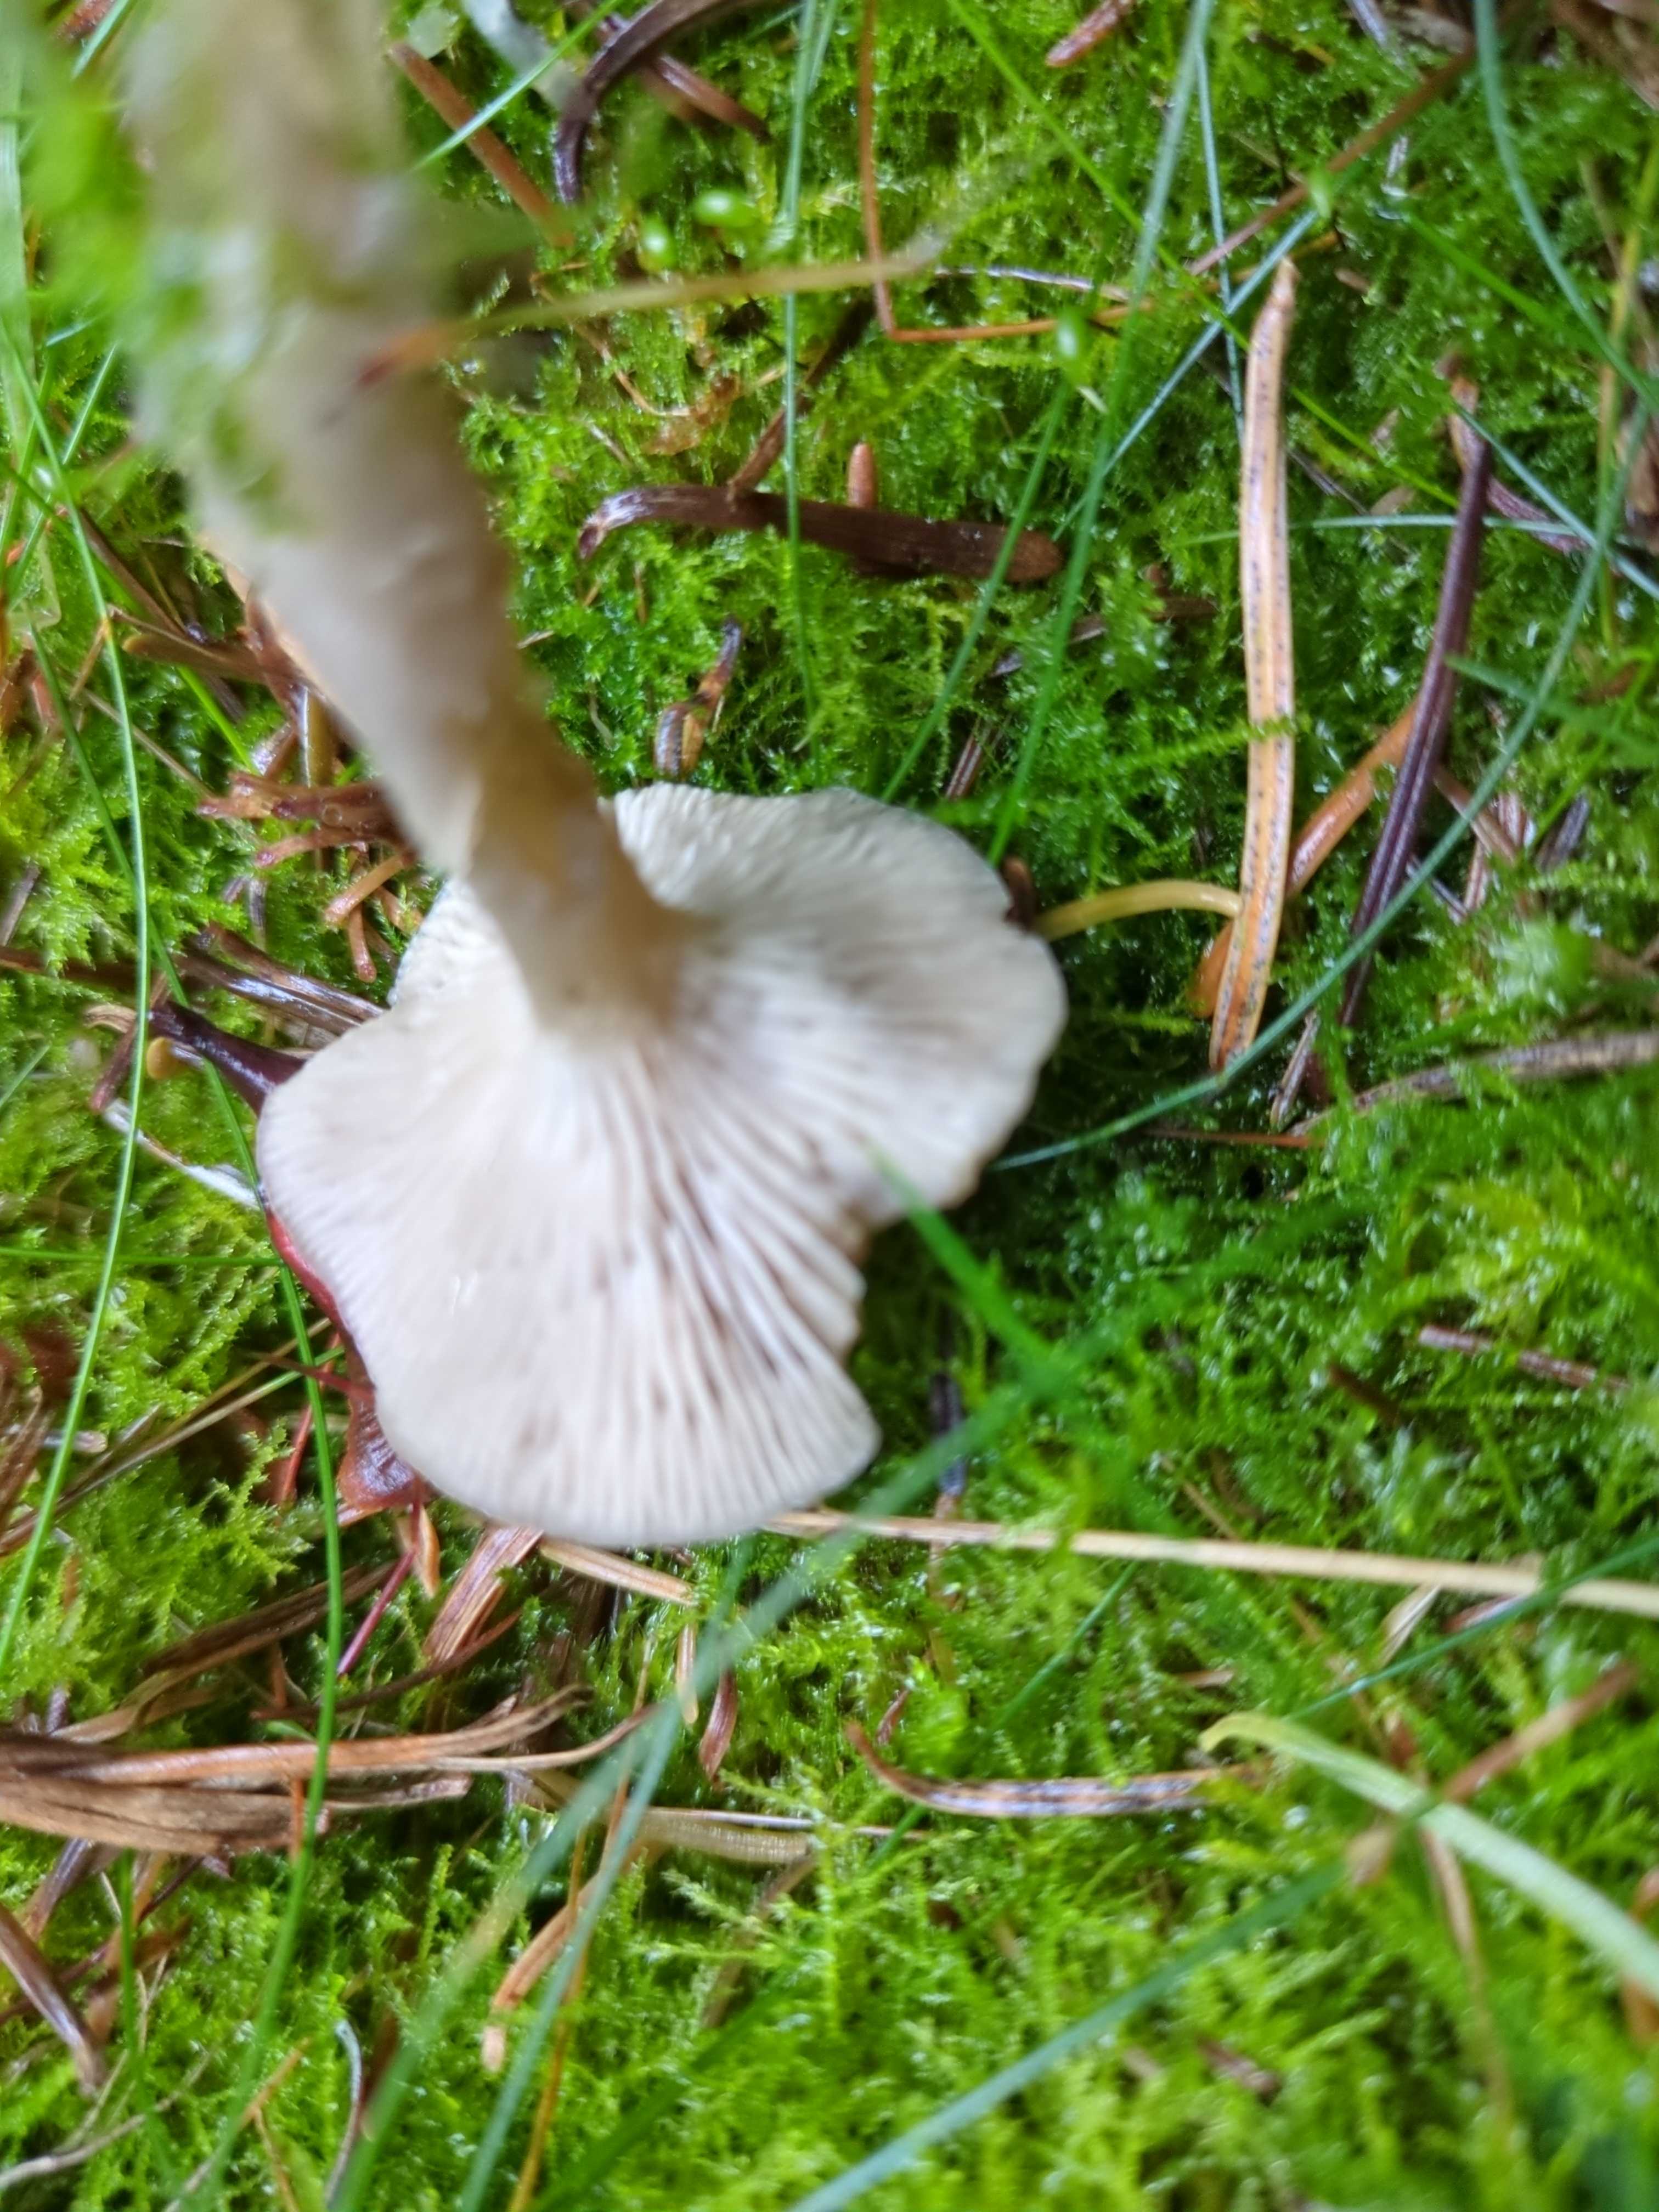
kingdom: Fungi
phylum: Basidiomycota
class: Agaricomycetes
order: Agaricales
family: Tricholomataceae
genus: Clitocybe
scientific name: Clitocybe
